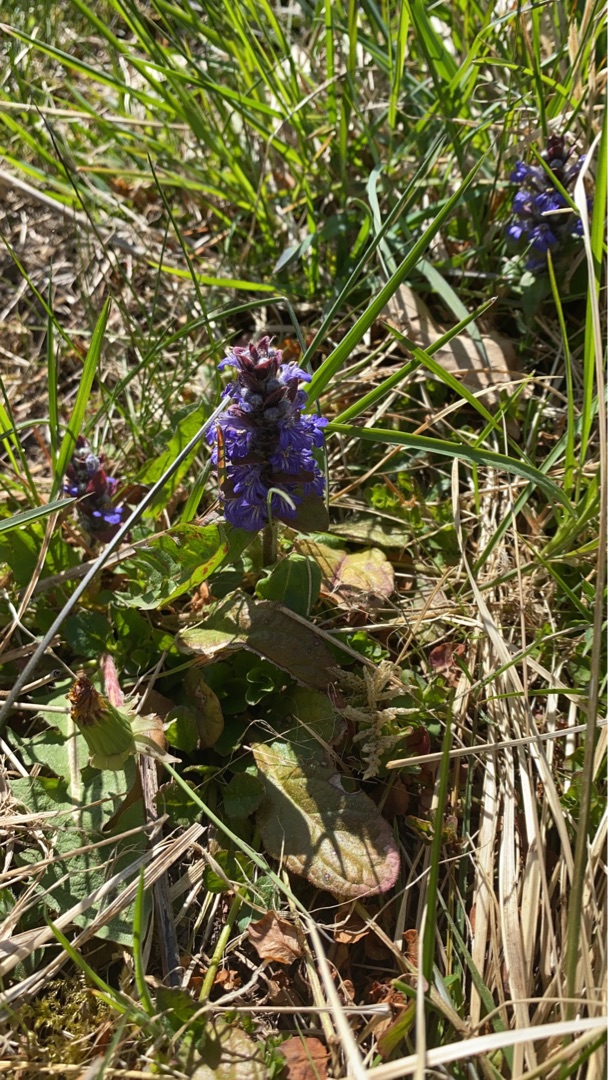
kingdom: Plantae
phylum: Tracheophyta
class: Magnoliopsida
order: Lamiales
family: Lamiaceae
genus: Ajuga
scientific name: Ajuga reptans
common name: Krybende læbeløs
